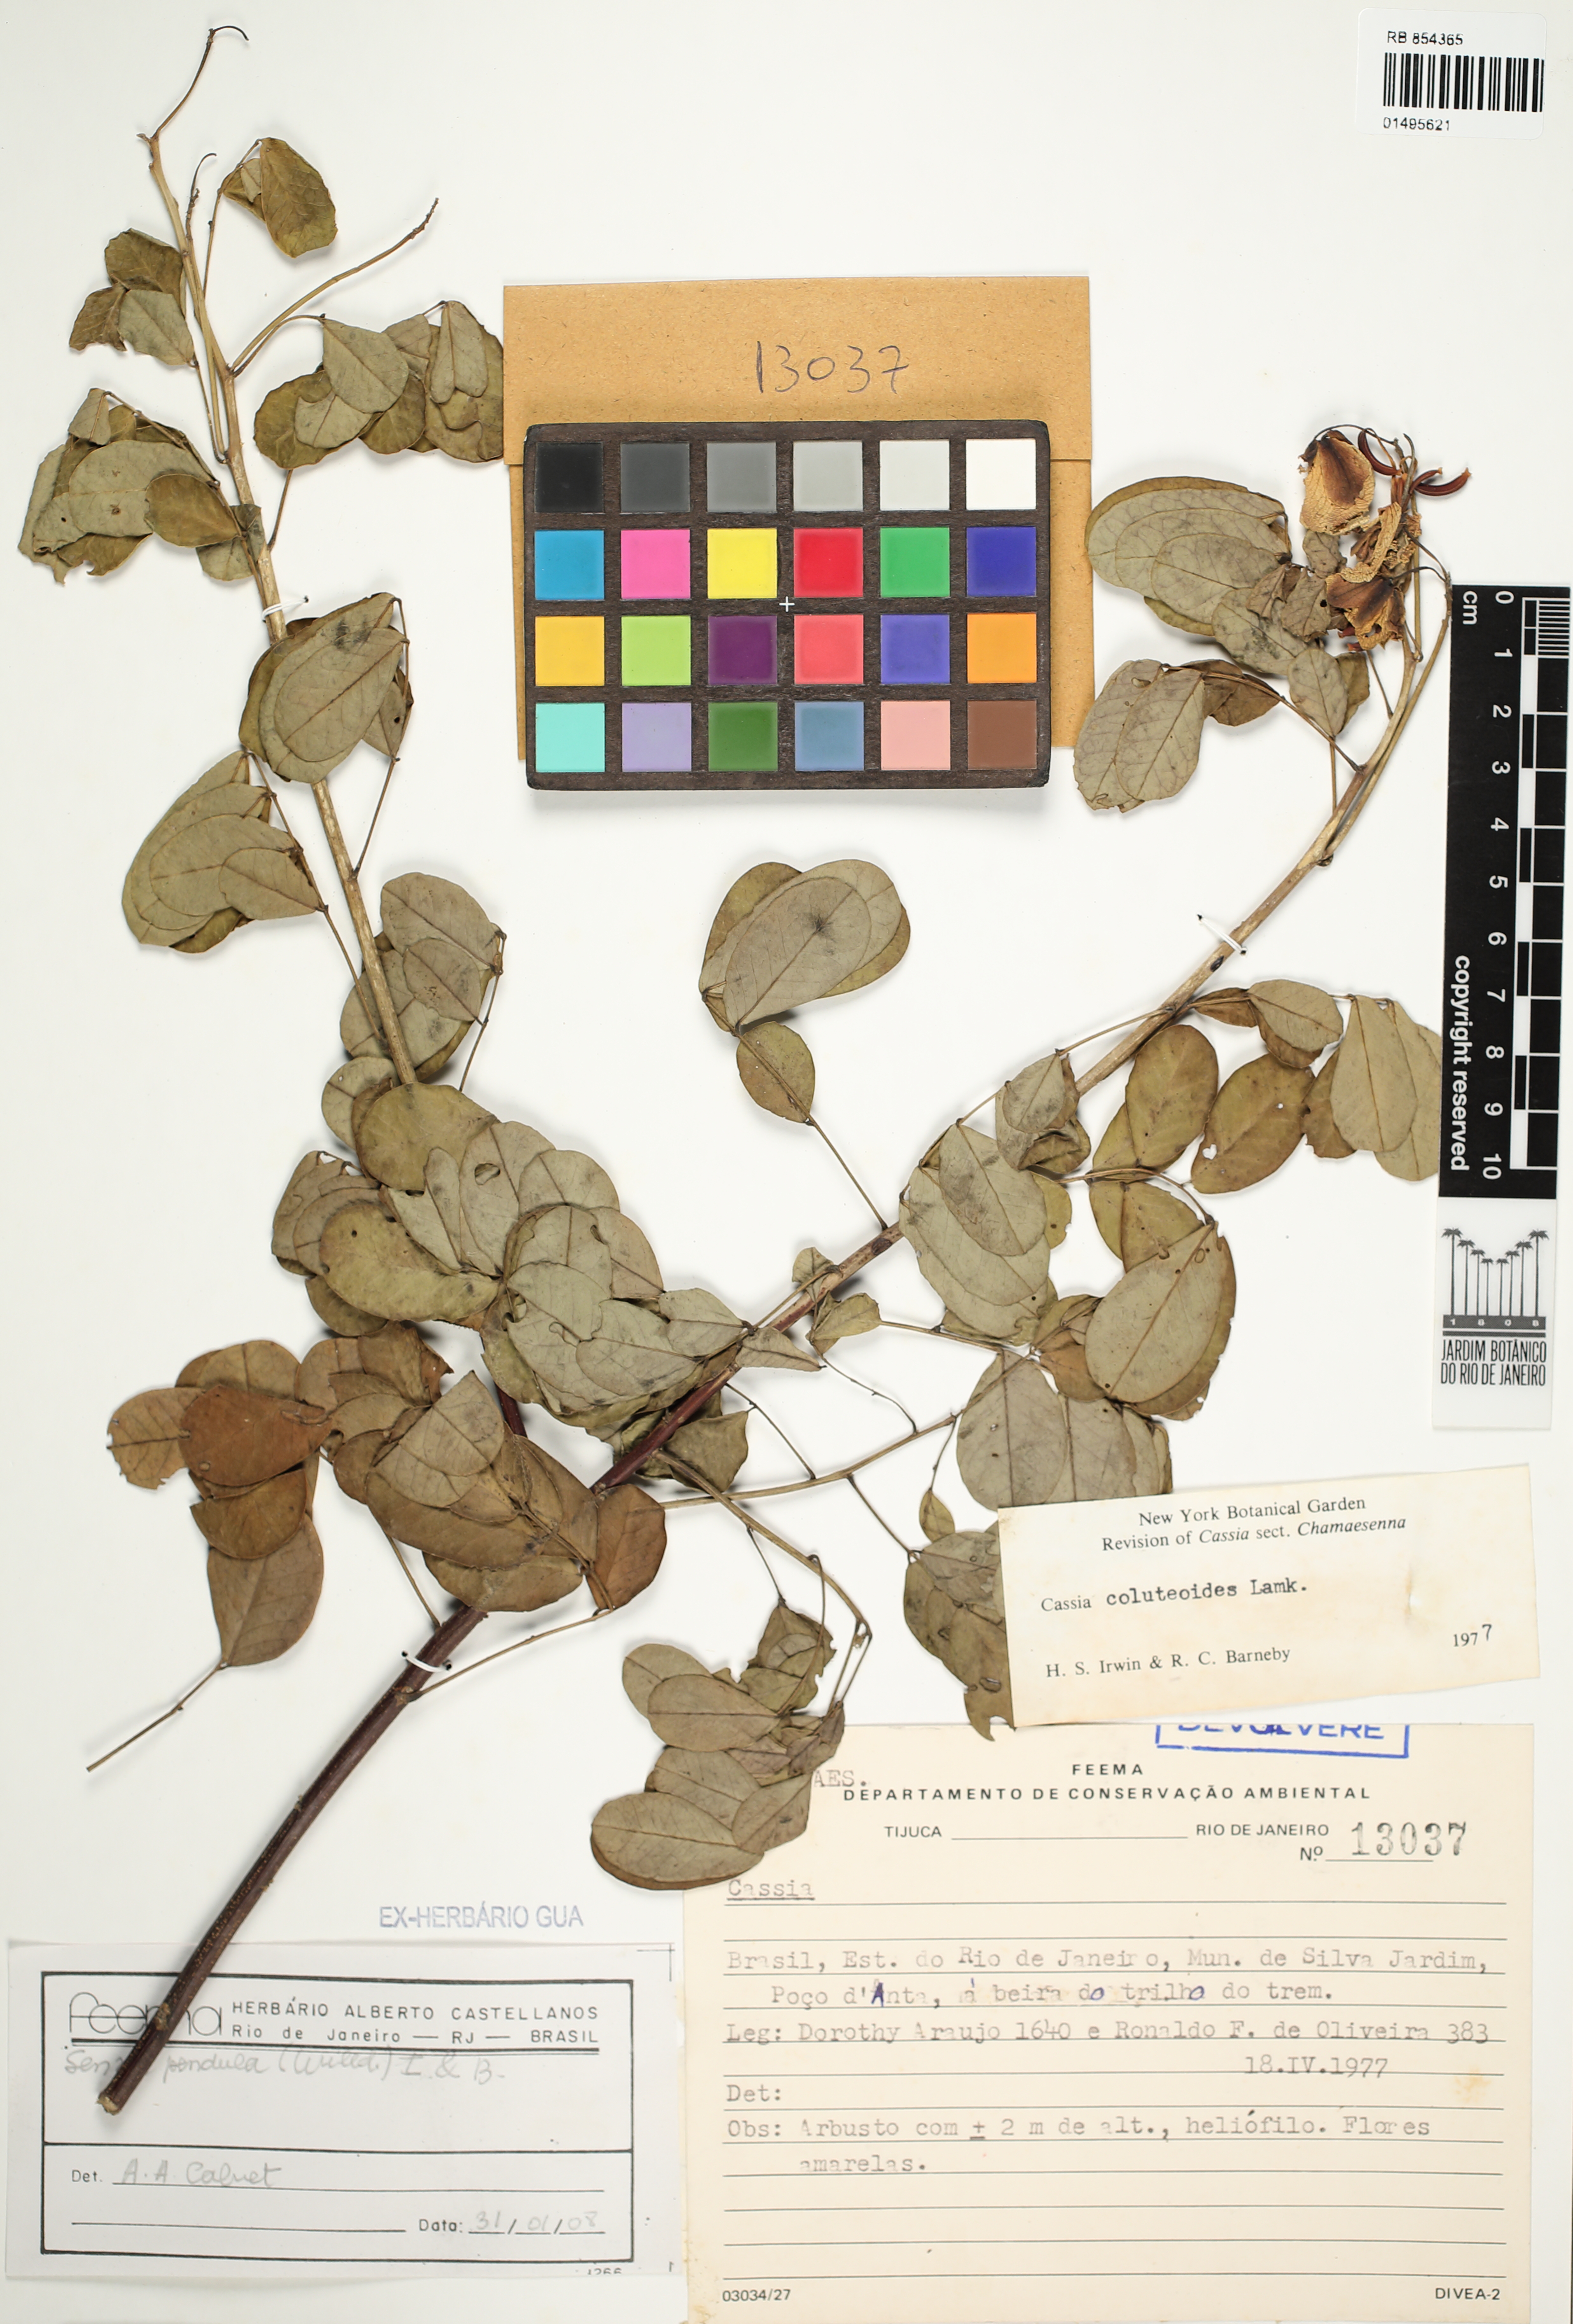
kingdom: Plantae
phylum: Tracheophyta
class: Magnoliopsida
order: Fabales
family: Fabaceae
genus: Senna
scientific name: Senna pendula
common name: Easter cassia
